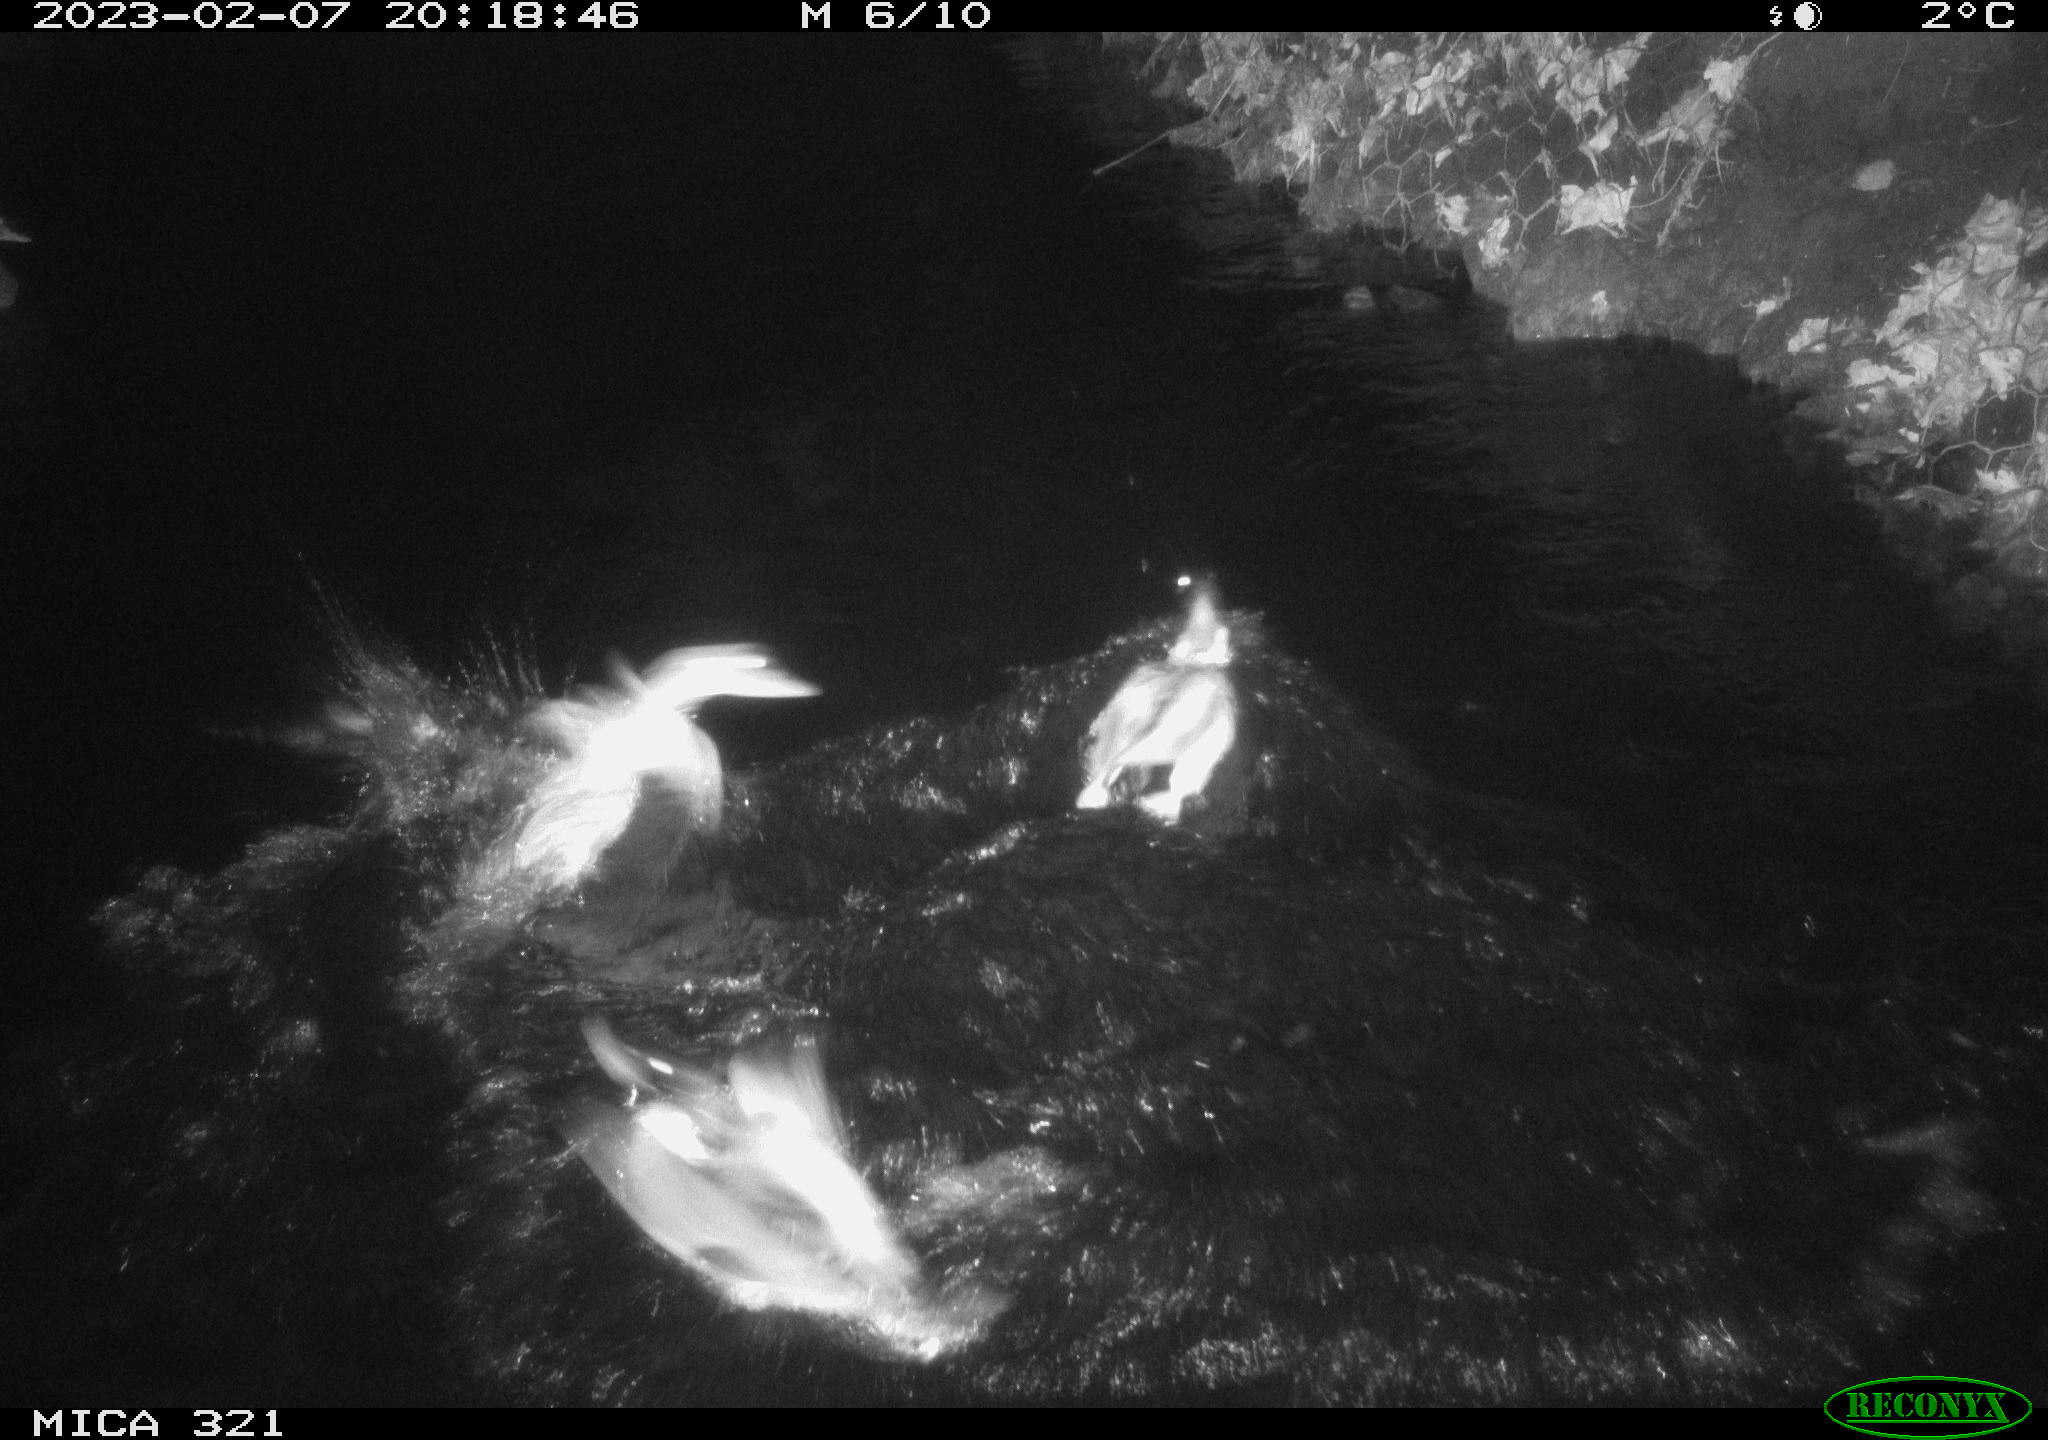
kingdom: Animalia
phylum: Chordata
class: Aves
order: Anseriformes
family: Anatidae
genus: Anas
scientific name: Anas
